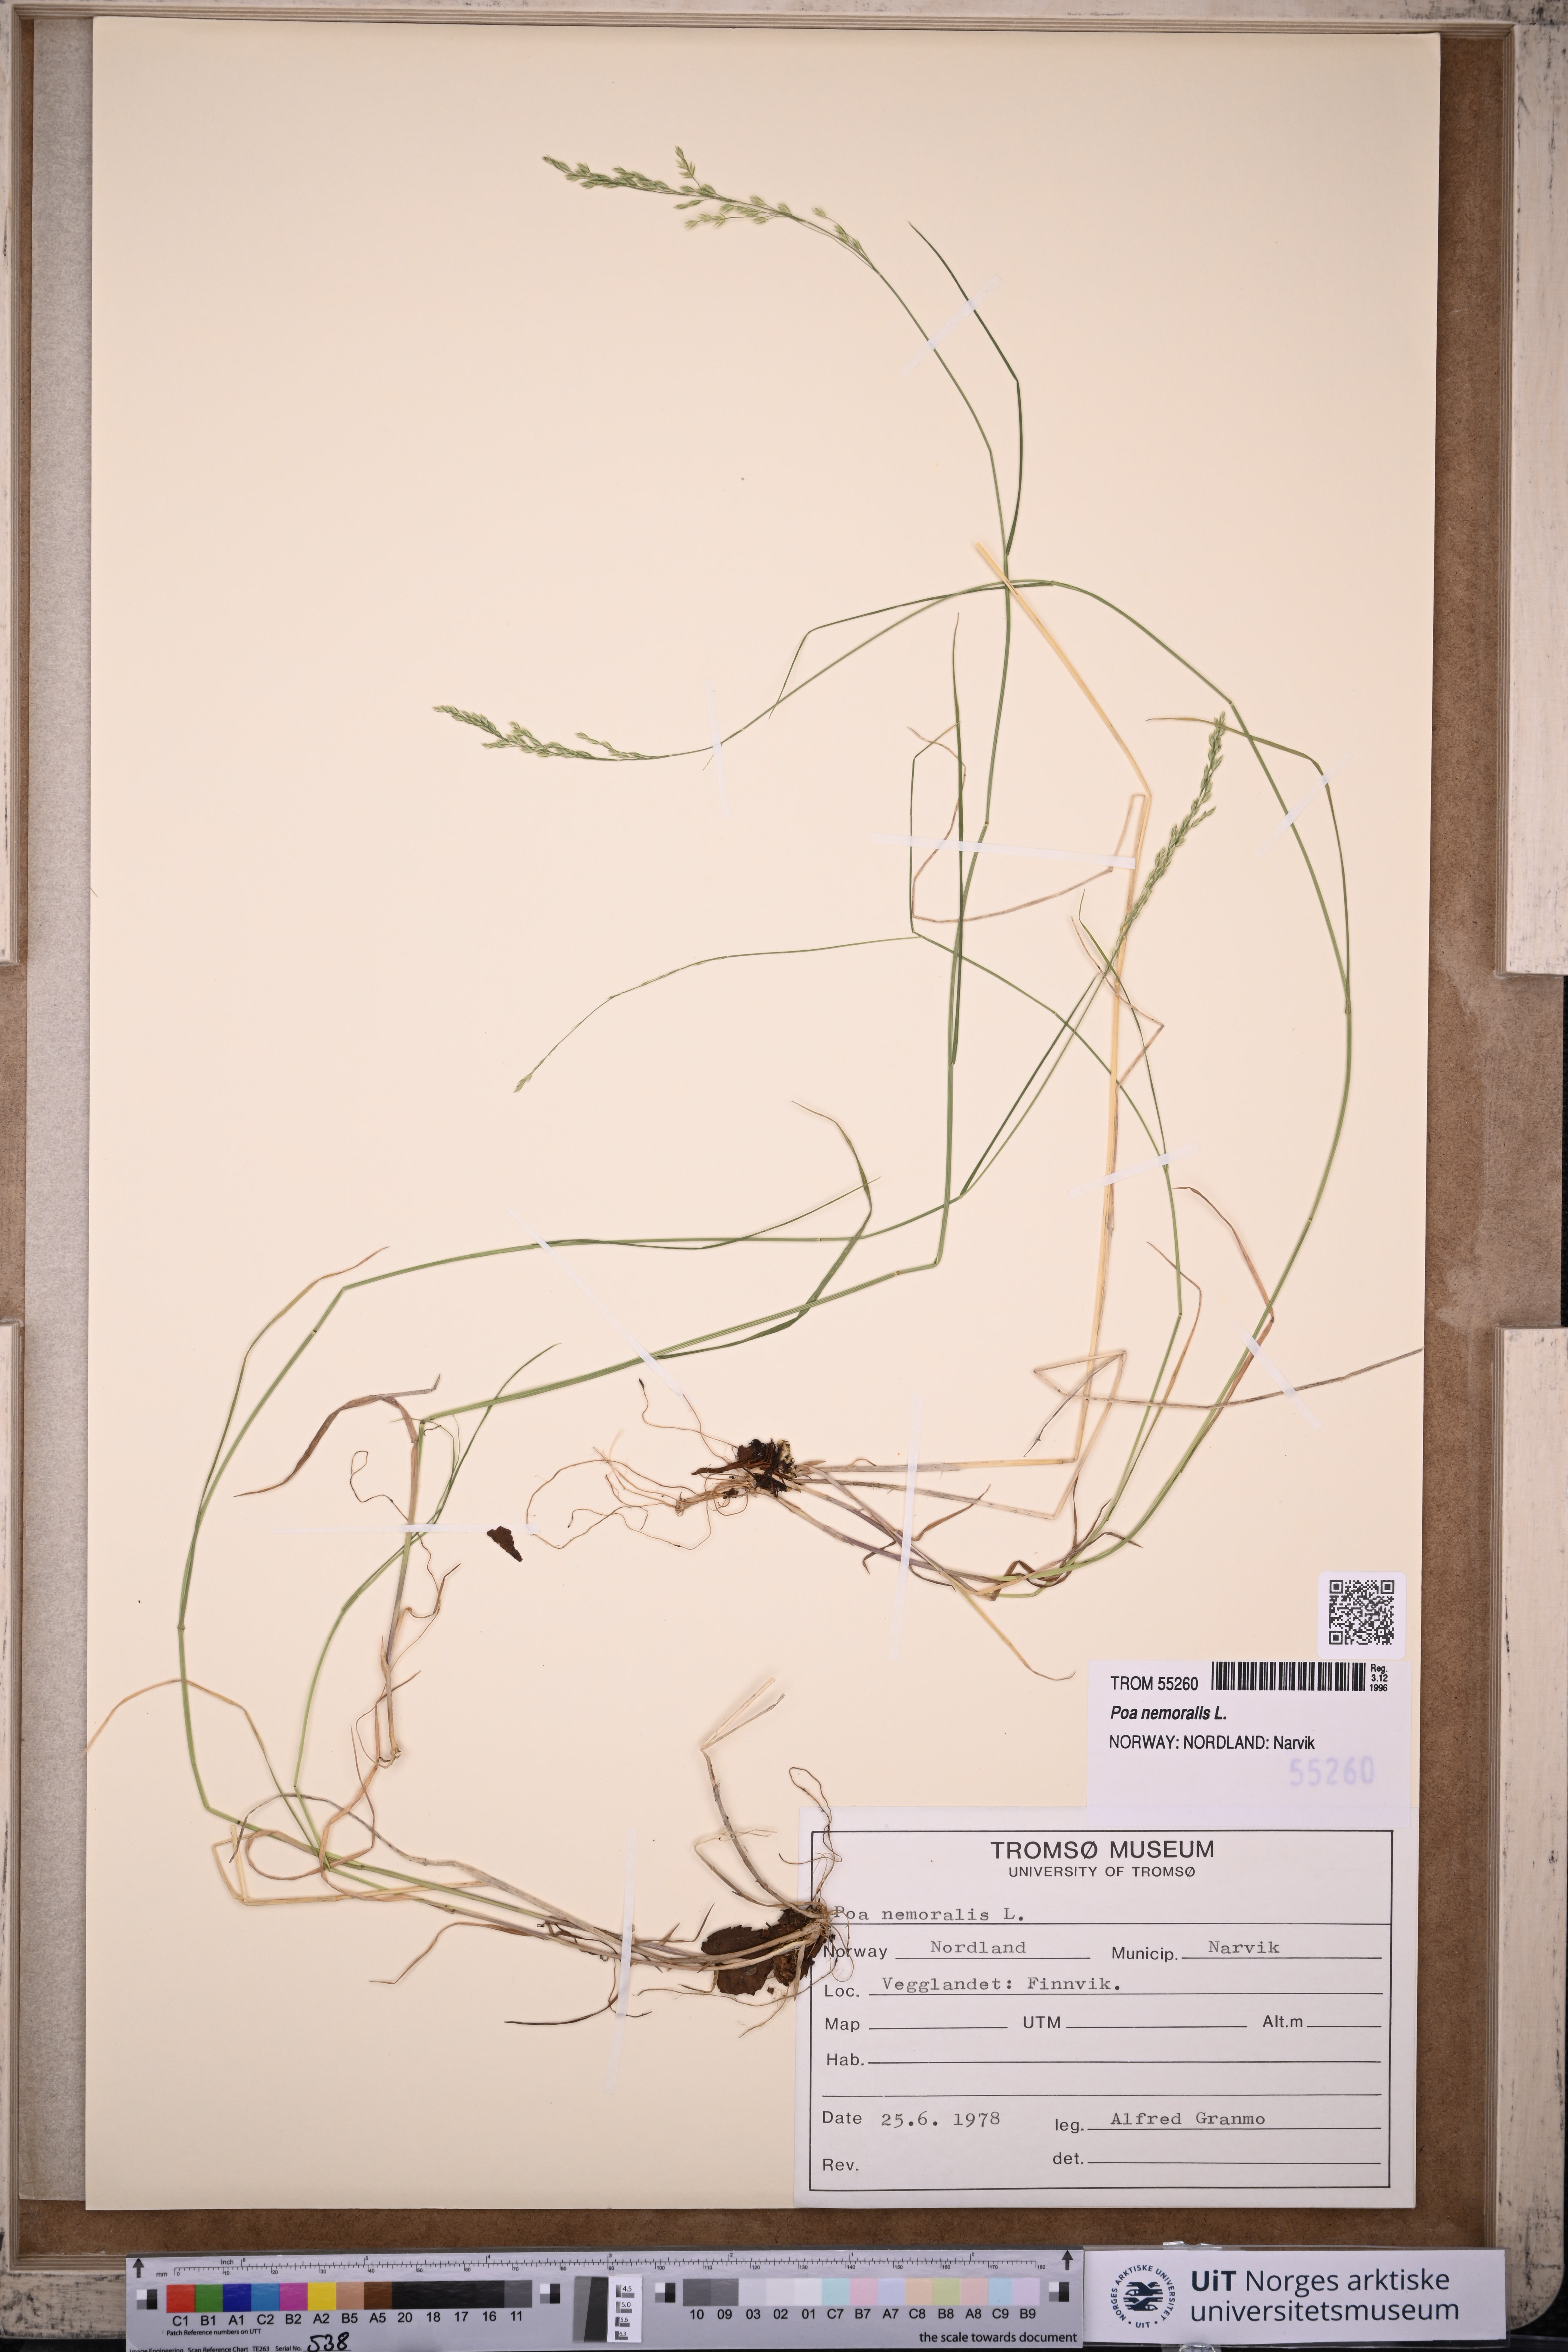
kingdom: Plantae
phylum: Tracheophyta
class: Liliopsida
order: Poales
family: Poaceae
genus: Poa
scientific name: Poa nemoralis
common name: Wood bluegrass
